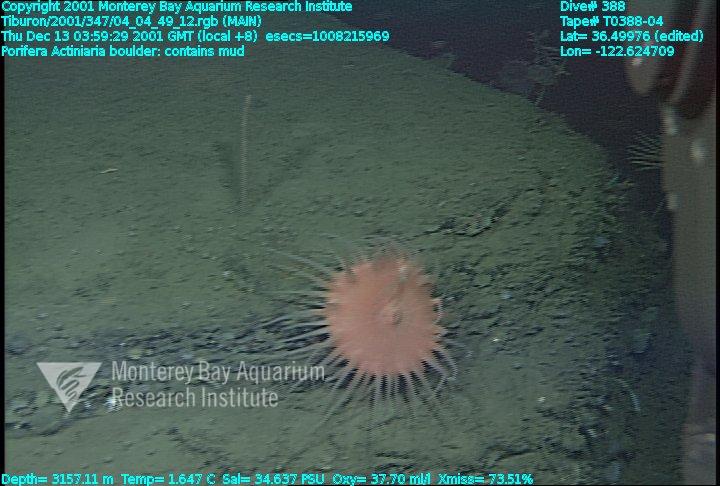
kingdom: Animalia
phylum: Porifera
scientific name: Porifera
